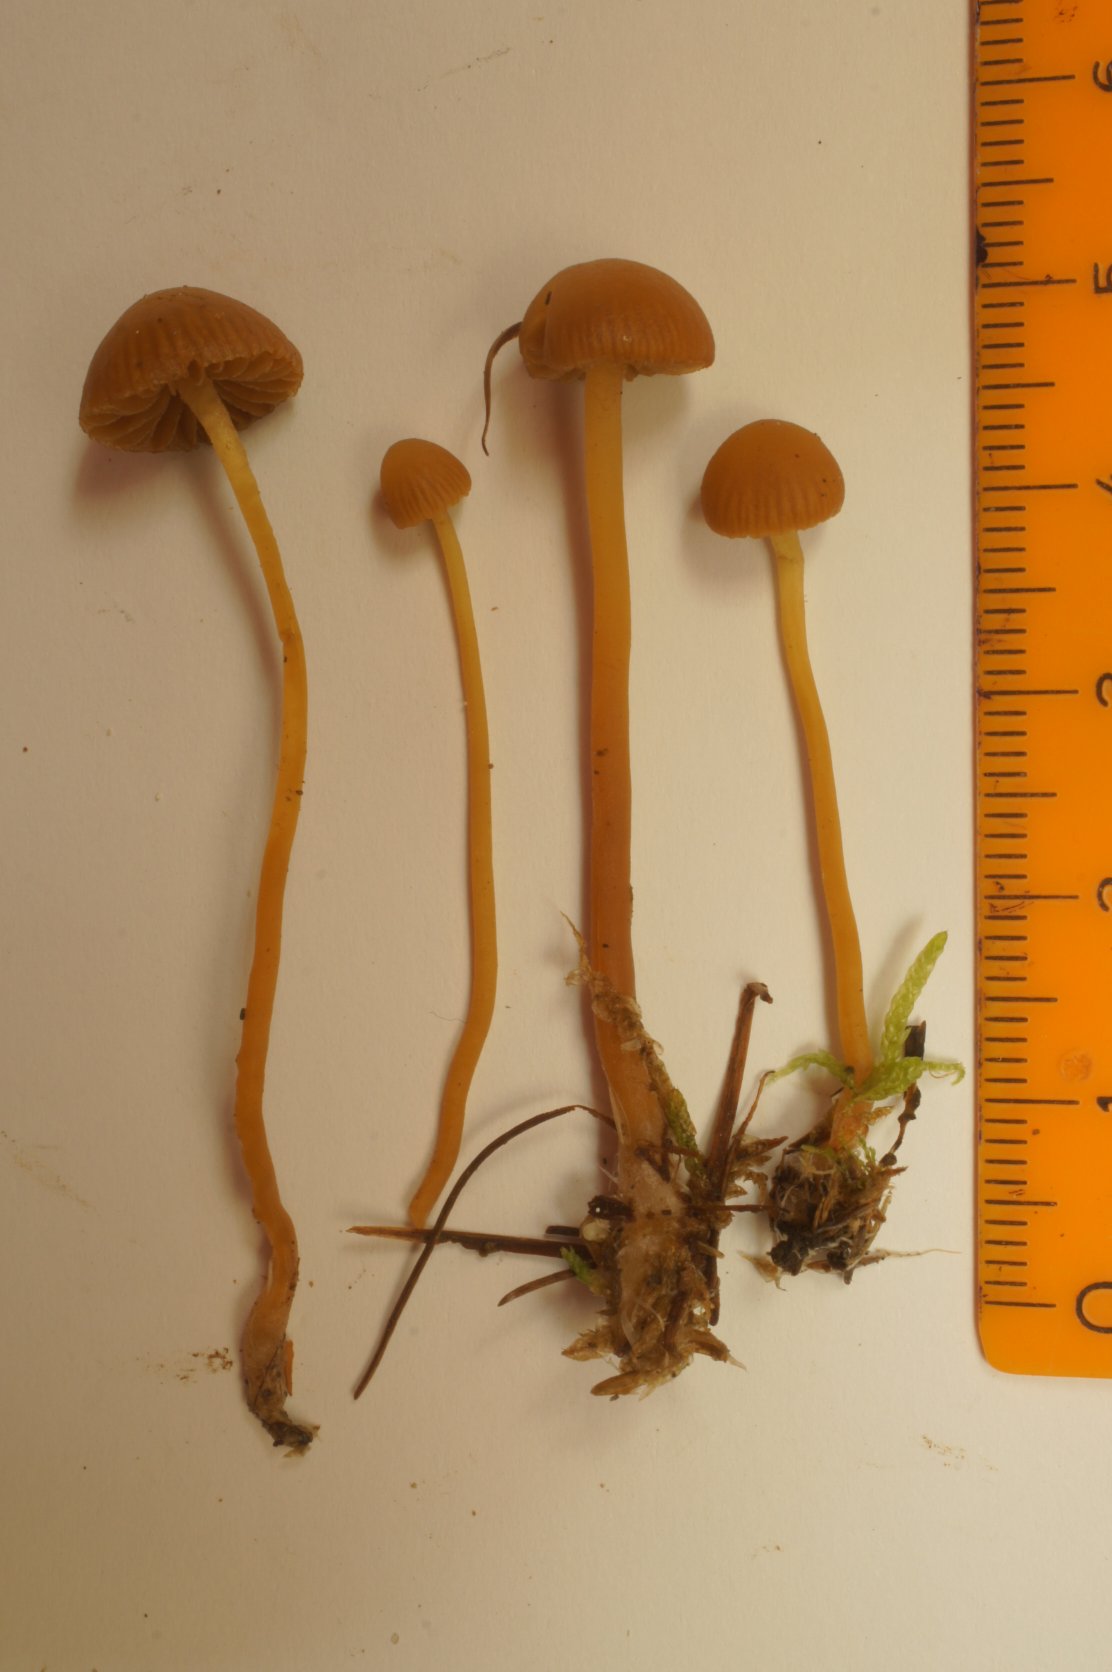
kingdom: Fungi
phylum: Basidiomycota
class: Agaricomycetes
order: Agaricales
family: Hymenogastraceae
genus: Galerina
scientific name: Galerina vittiformis
